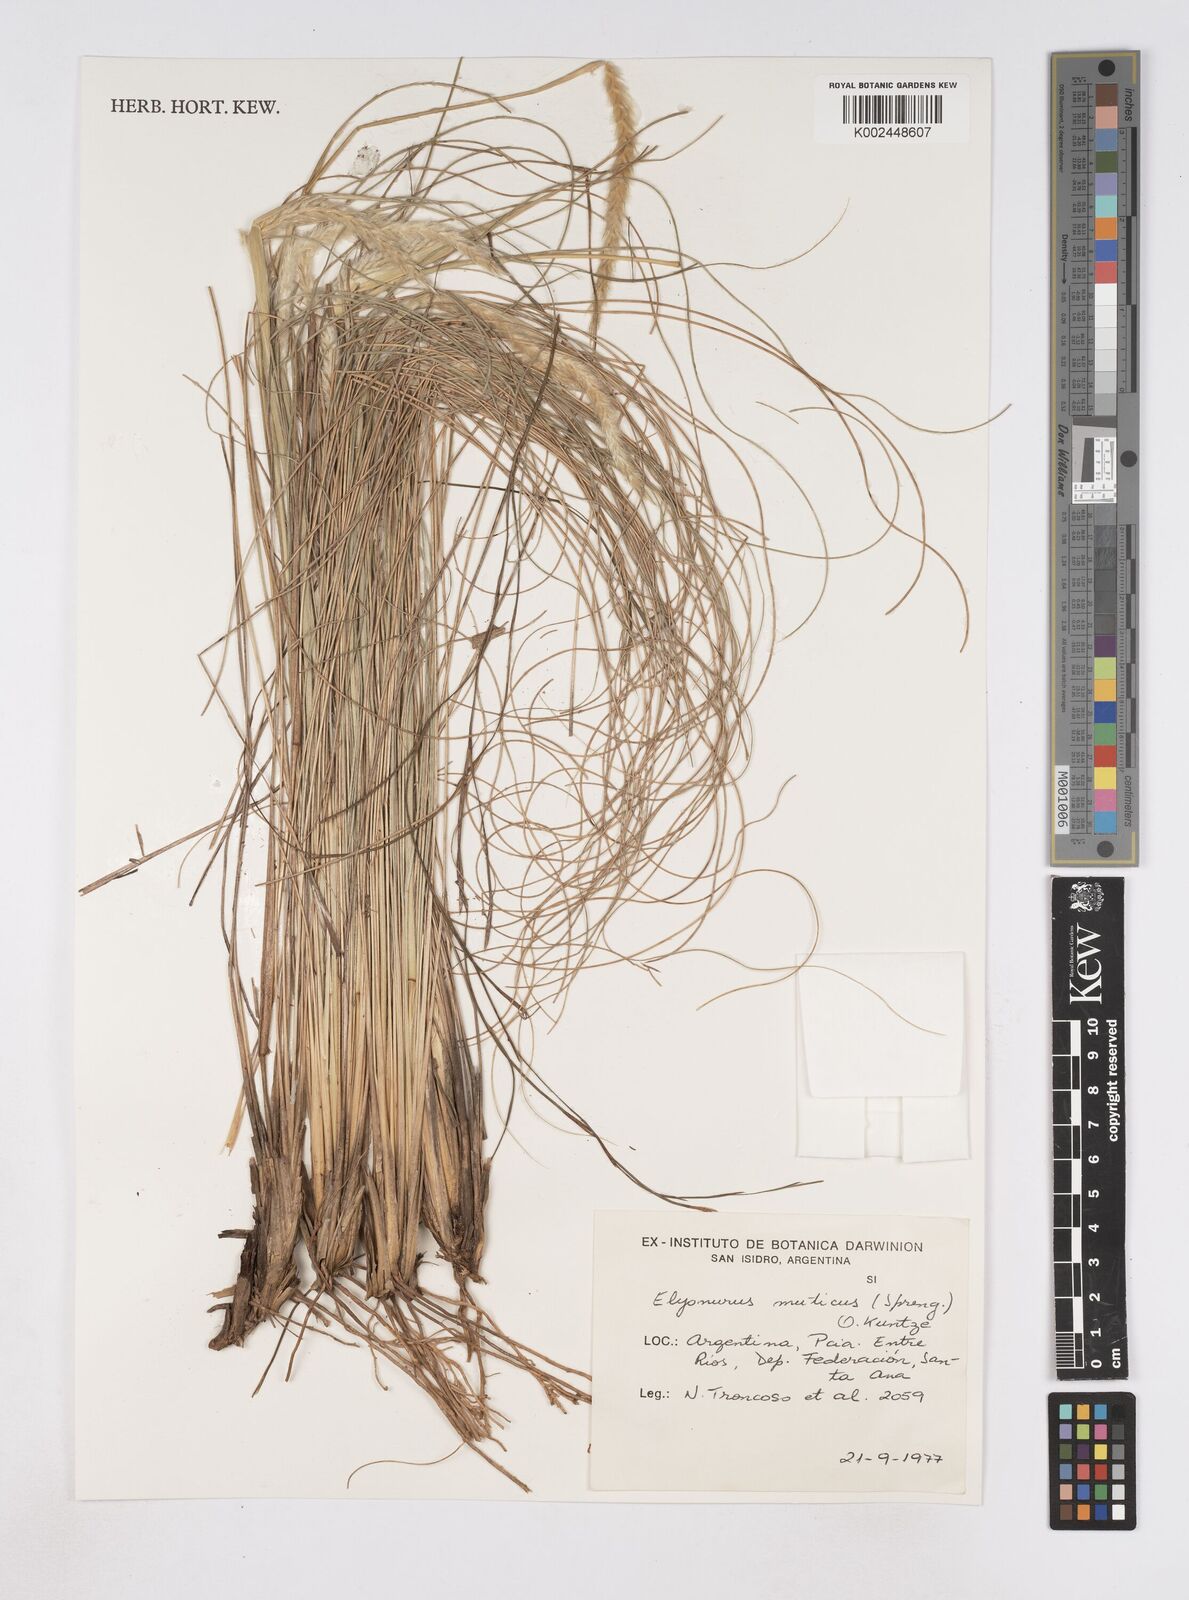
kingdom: Plantae
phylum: Tracheophyta
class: Liliopsida
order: Poales
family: Poaceae
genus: Elionurus
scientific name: Elionurus muticus
